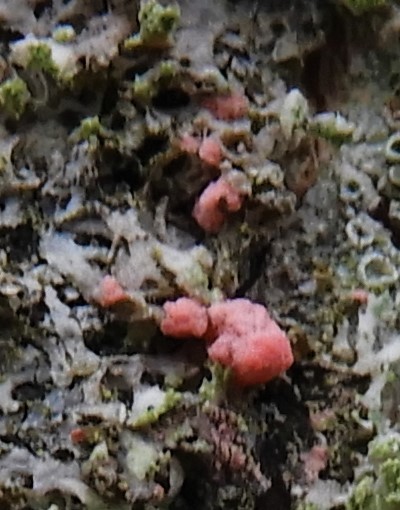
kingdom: Fungi
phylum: Ascomycota
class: Sordariomycetes
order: Hypocreales
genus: Illosporiopsis
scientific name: Illosporiopsis christiansenii
